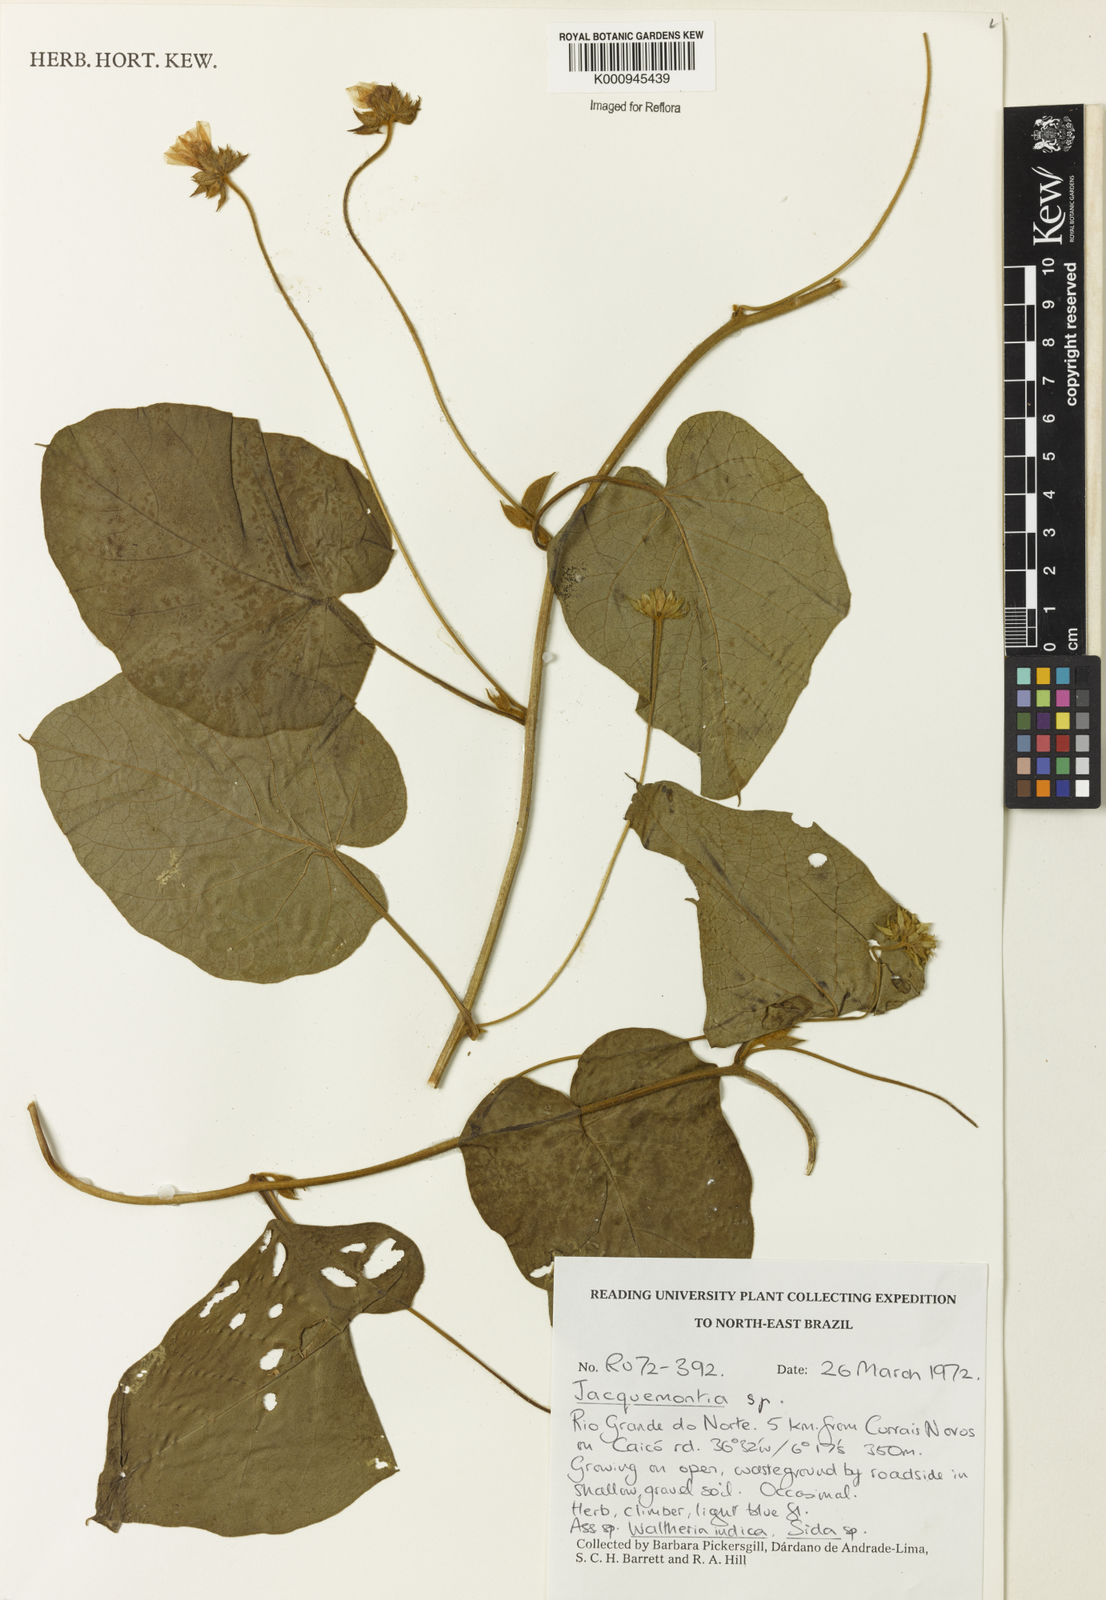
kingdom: Plantae
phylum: Tracheophyta
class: Magnoliopsida
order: Solanales
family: Convolvulaceae
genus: Jacquemontia
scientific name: Jacquemontia
